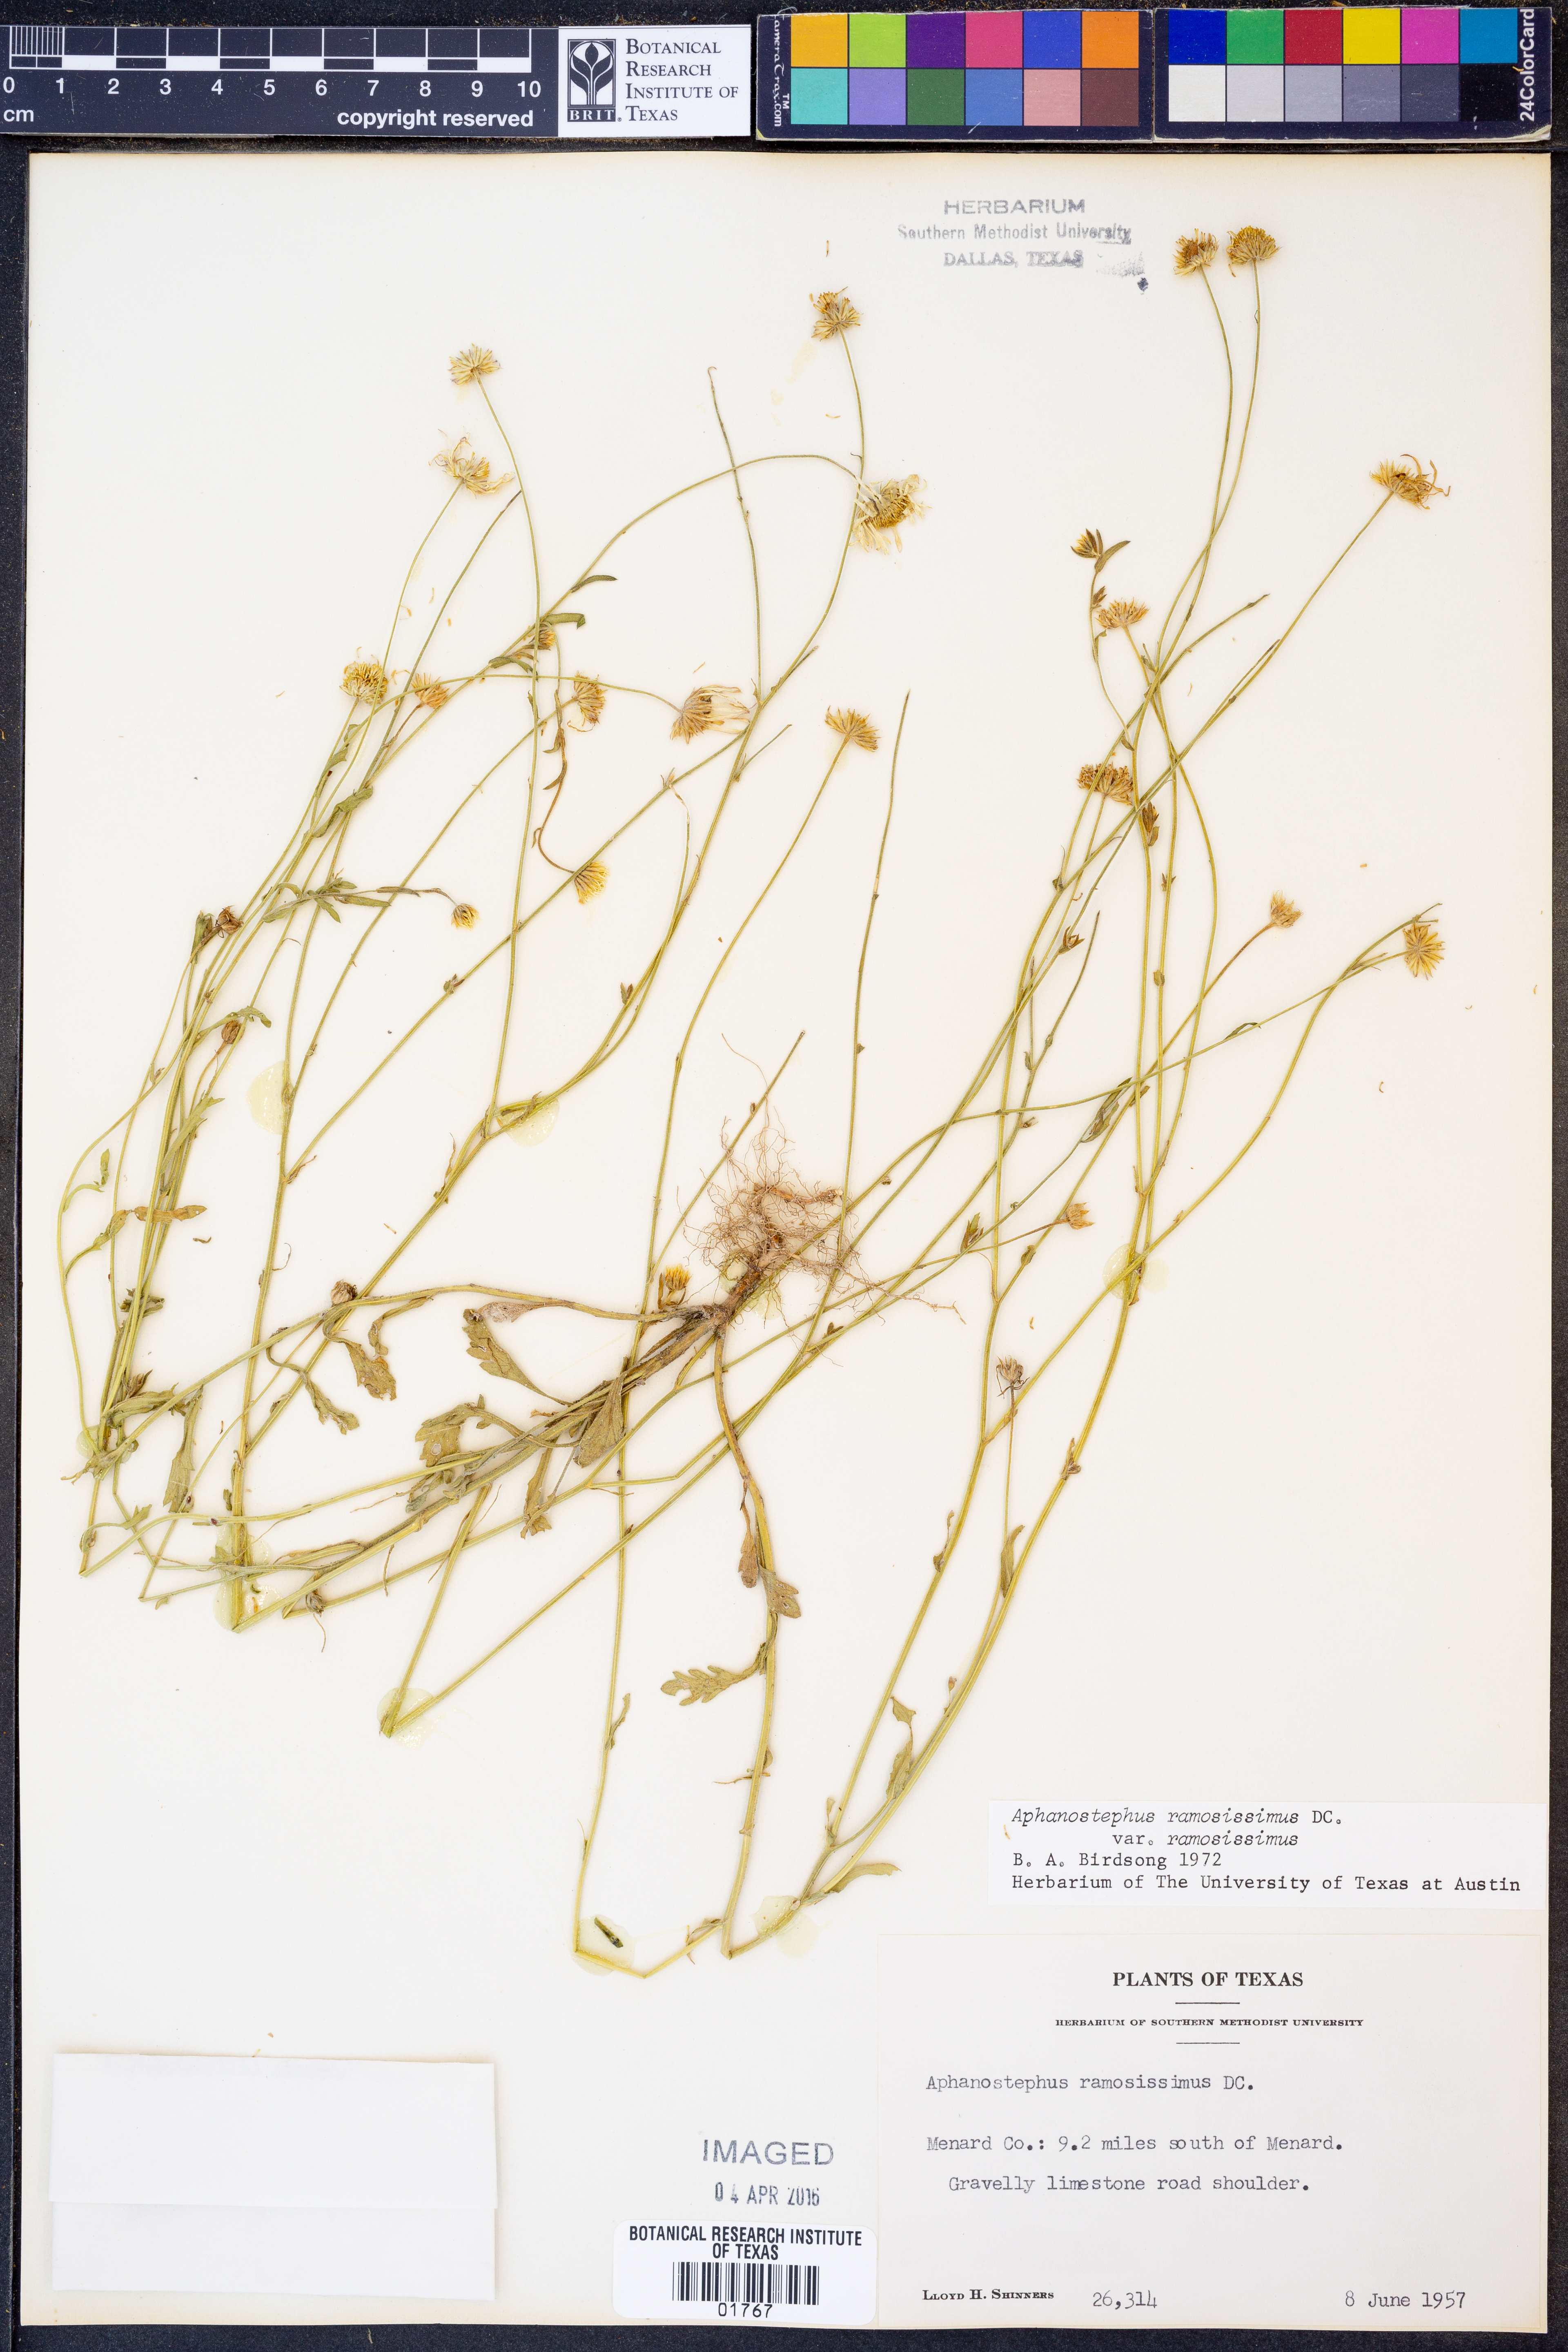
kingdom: Plantae
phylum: Tracheophyta
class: Magnoliopsida
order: Asterales
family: Asteraceae
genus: Aphanostephus
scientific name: Aphanostephus ramosissimus
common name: Plains lazy daisy
